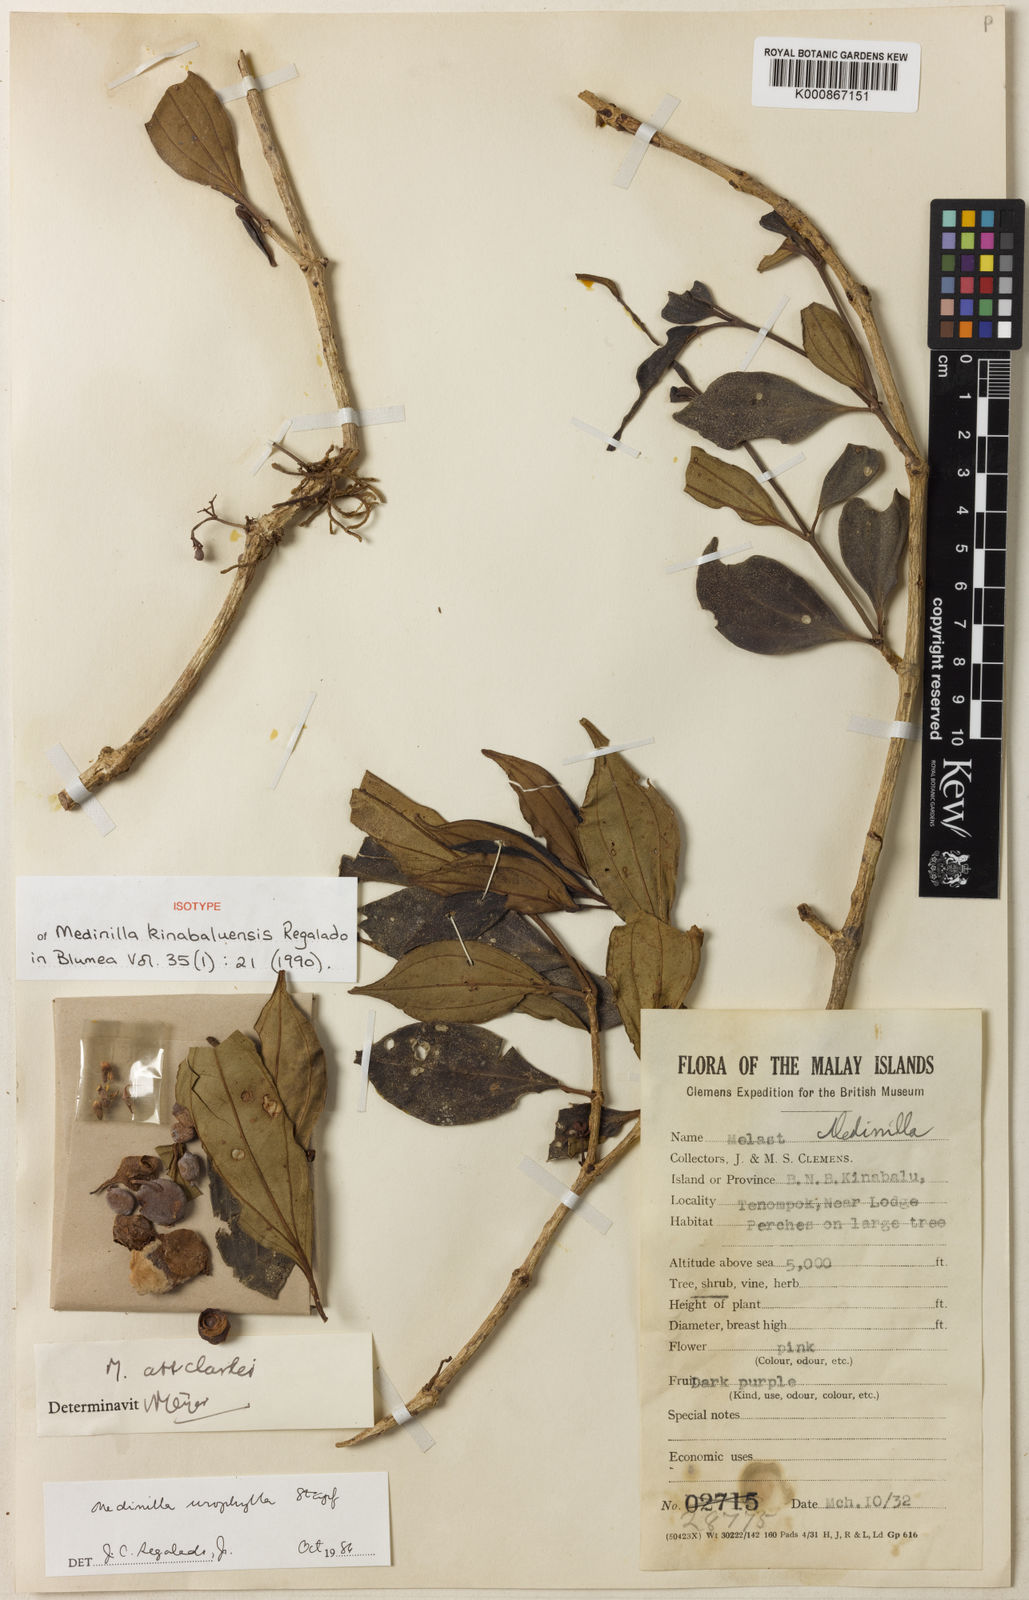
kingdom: Plantae
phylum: Tracheophyta
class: Magnoliopsida
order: Myrtales
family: Melastomataceae
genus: Medinilla
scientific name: Medinilla kinabaluensis
